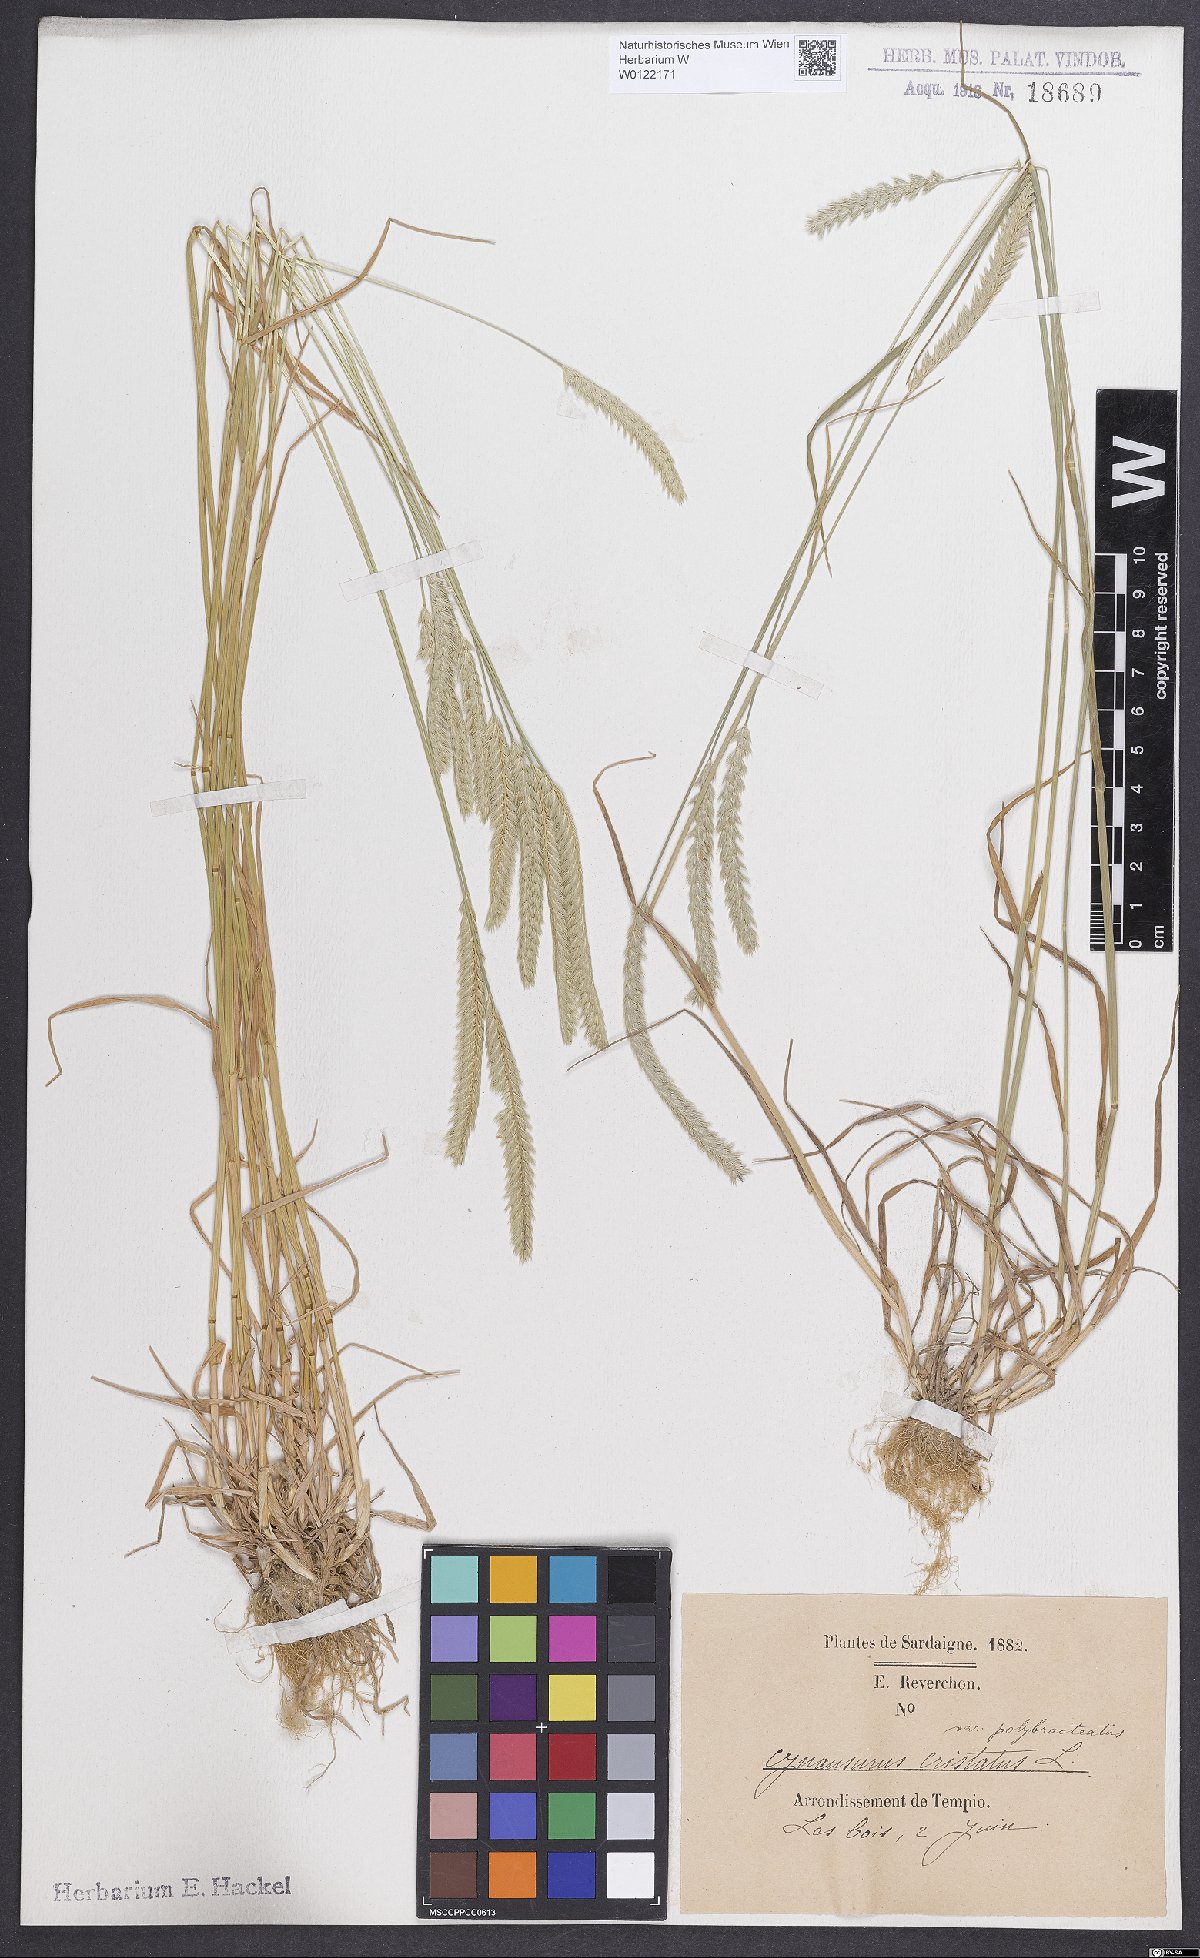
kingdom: Plantae
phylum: Tracheophyta
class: Liliopsida
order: Poales
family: Poaceae
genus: Cynosurus
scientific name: Cynosurus polybracteatus
